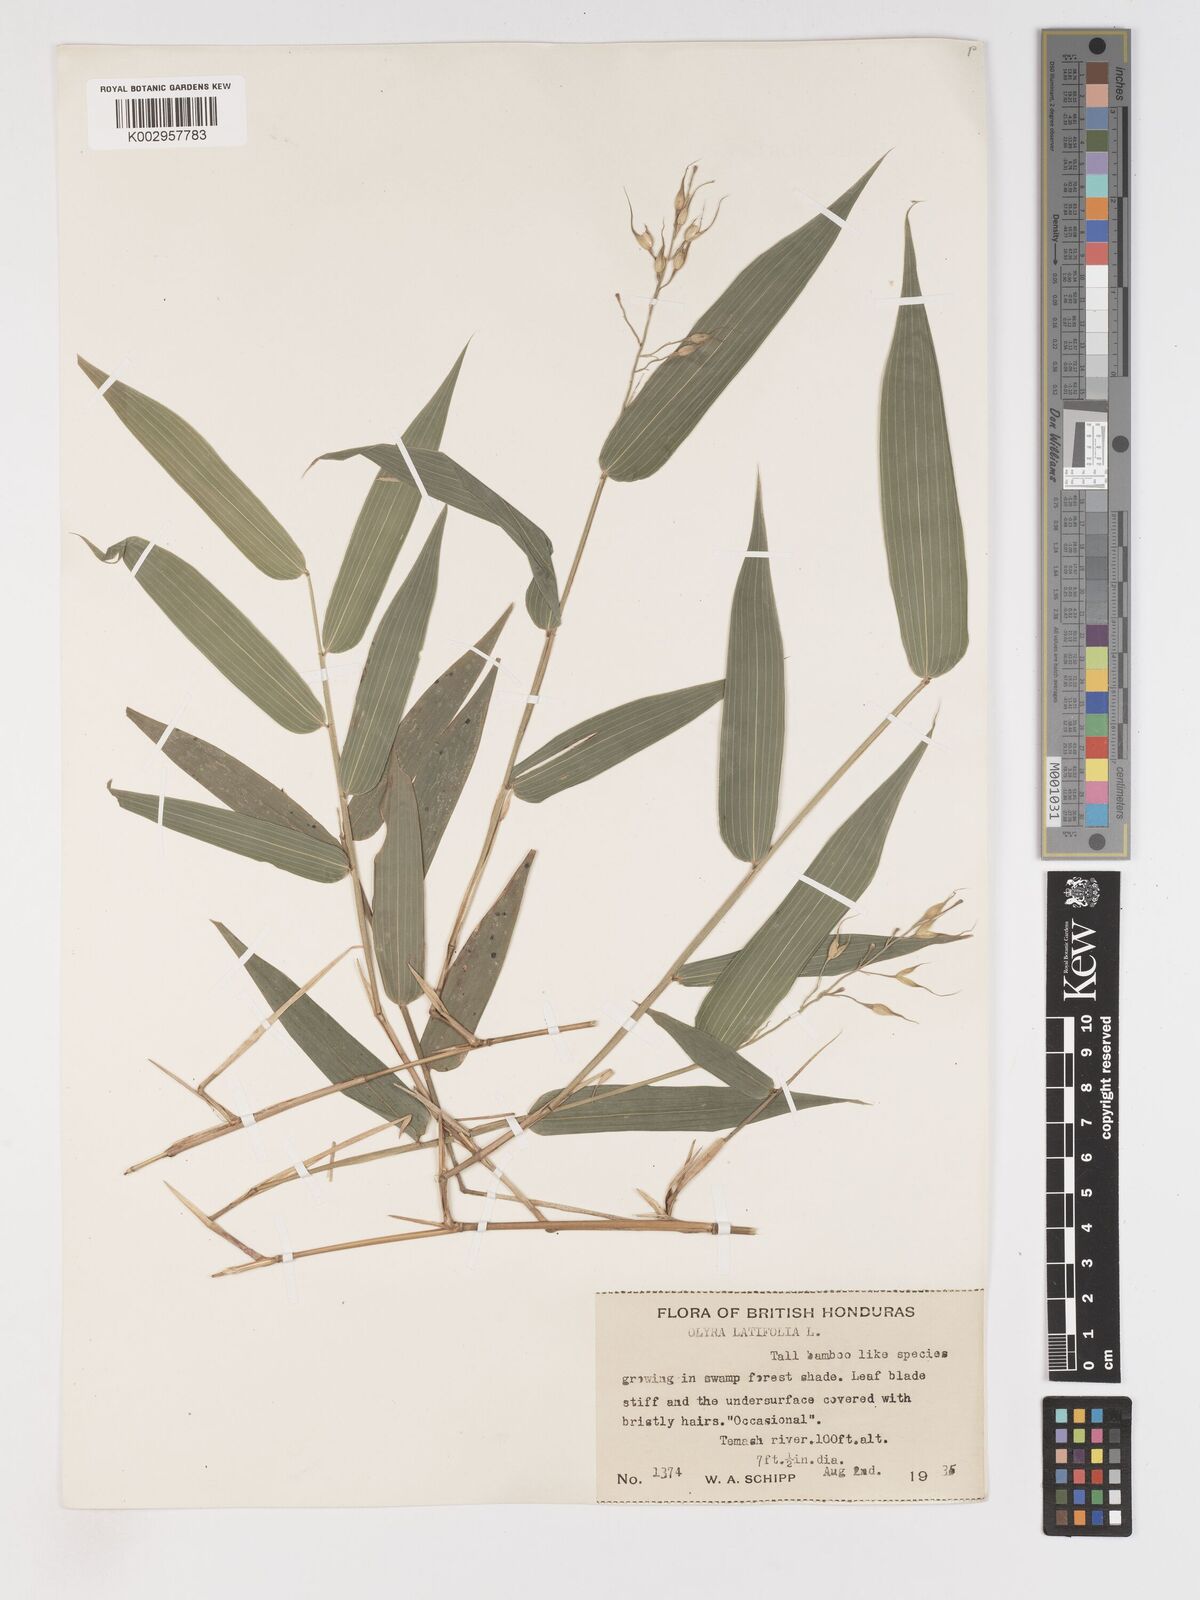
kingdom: Plantae
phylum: Tracheophyta
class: Liliopsida
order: Poales
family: Poaceae
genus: Olyra
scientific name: Olyra latifolia
